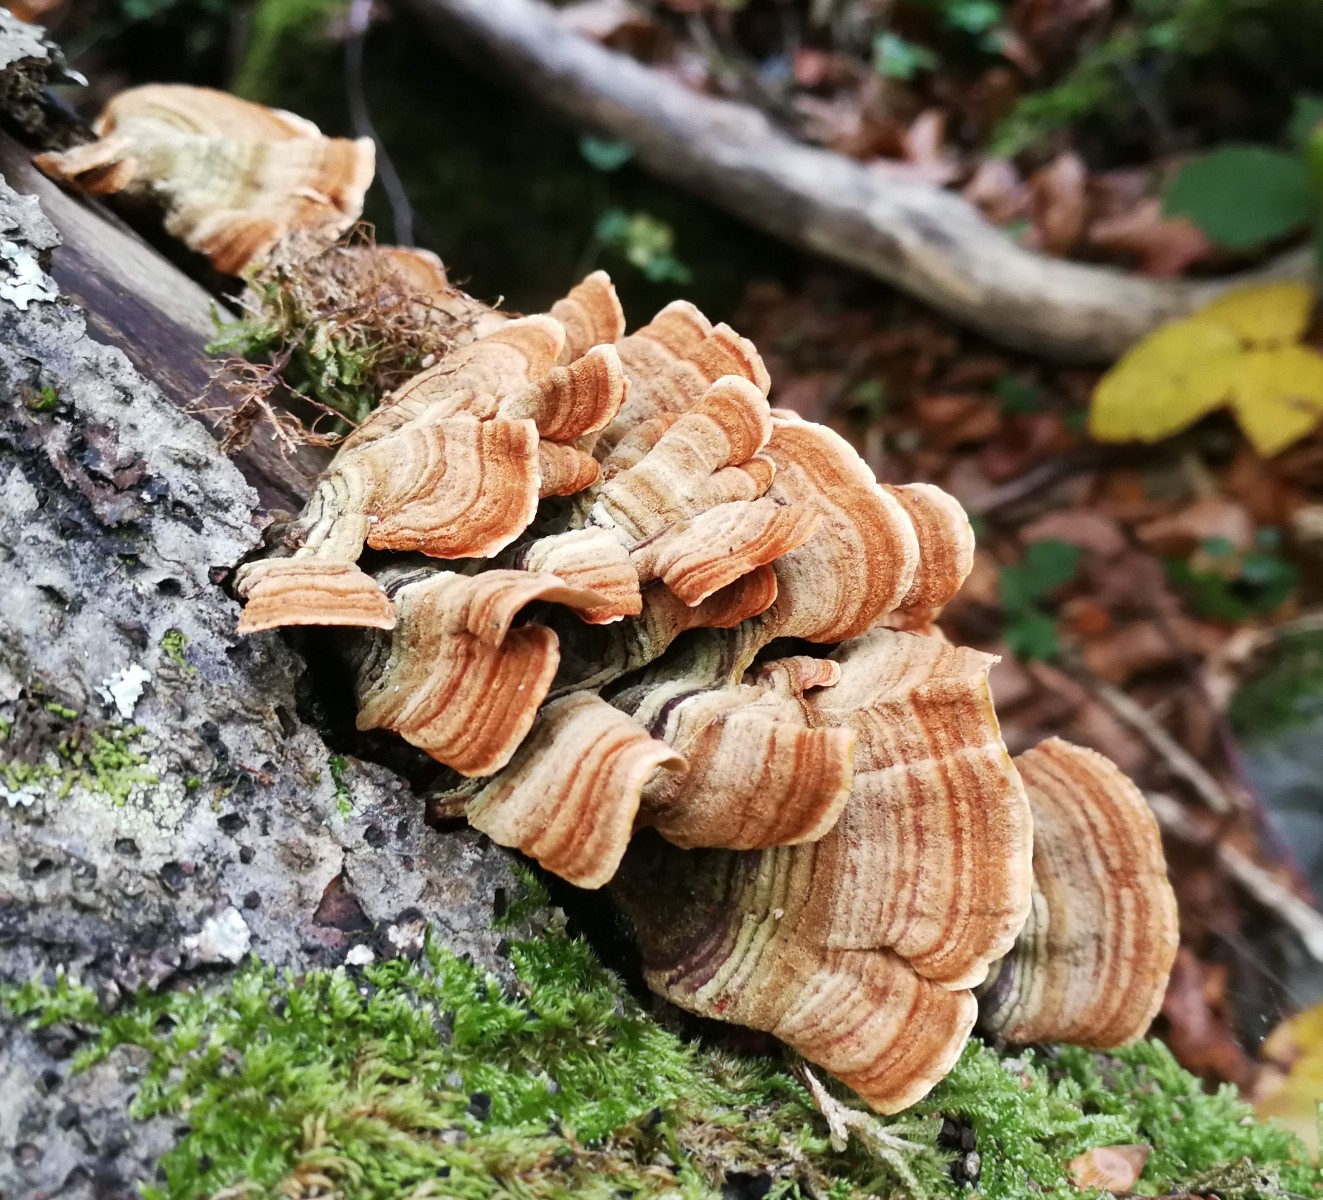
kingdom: Fungi
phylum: Basidiomycota
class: Agaricomycetes
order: Russulales
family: Stereaceae
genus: Stereum
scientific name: Stereum hirsutum
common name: håret lædersvamp
